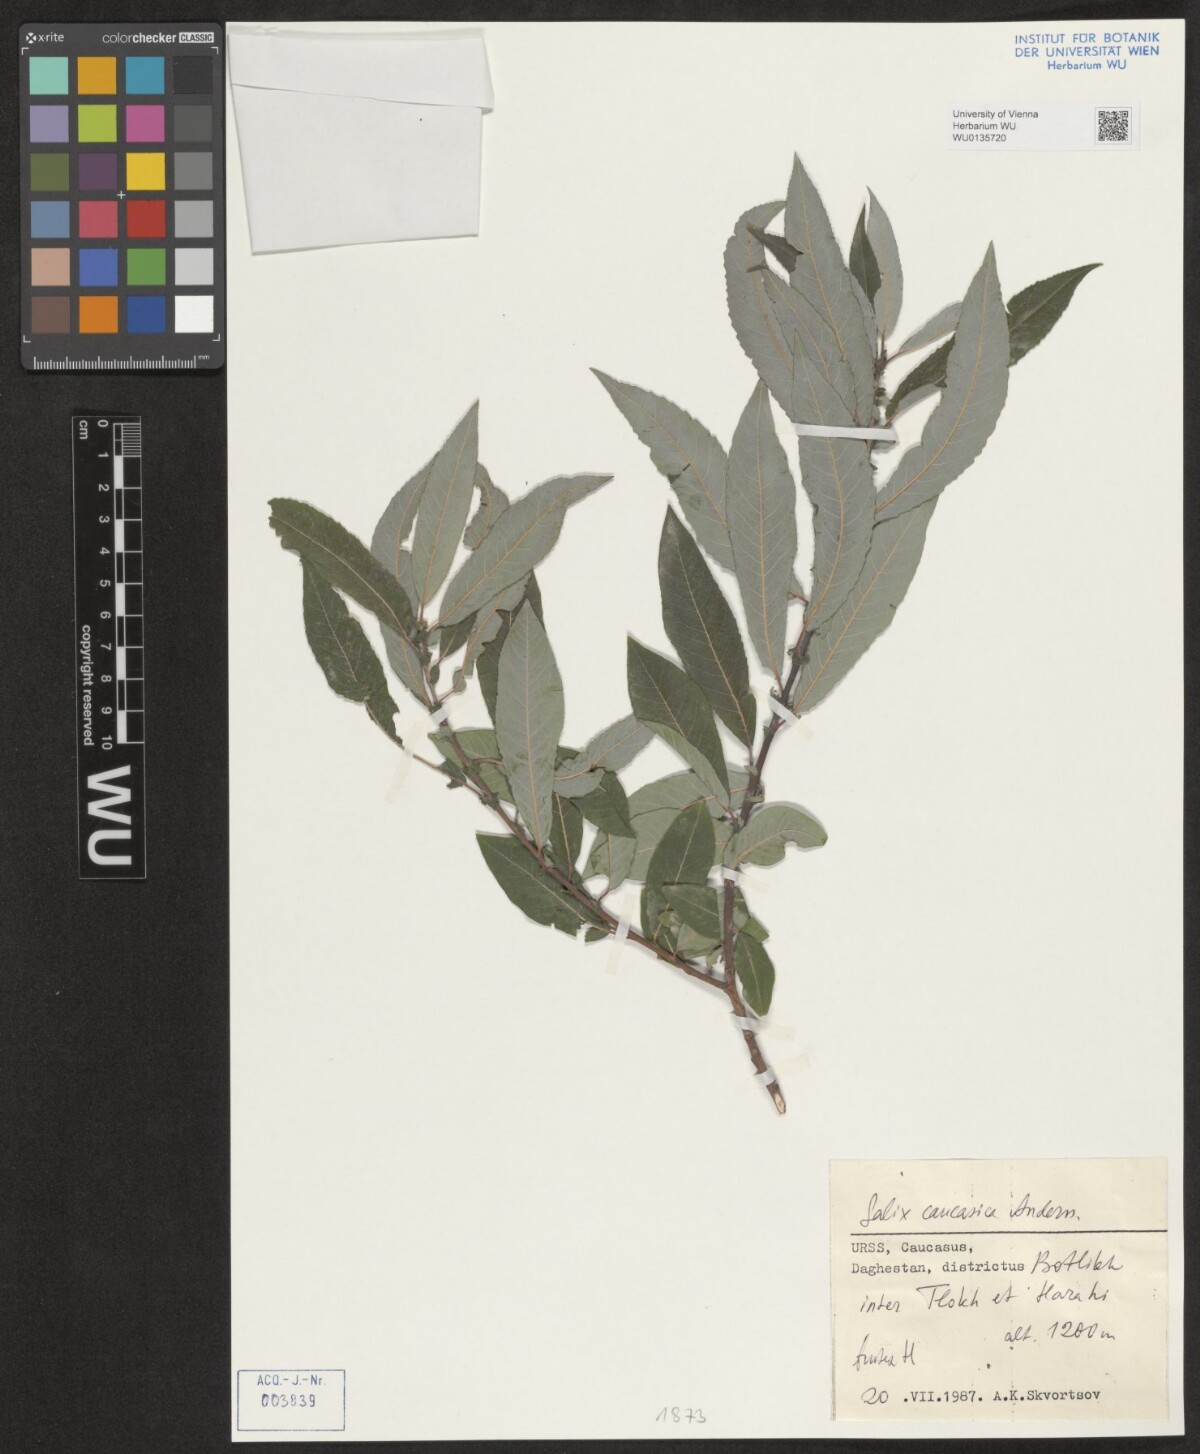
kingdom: Plantae
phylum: Tracheophyta
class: Magnoliopsida
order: Malpighiales
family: Salicaceae
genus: Salix
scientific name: Salix caucasica
